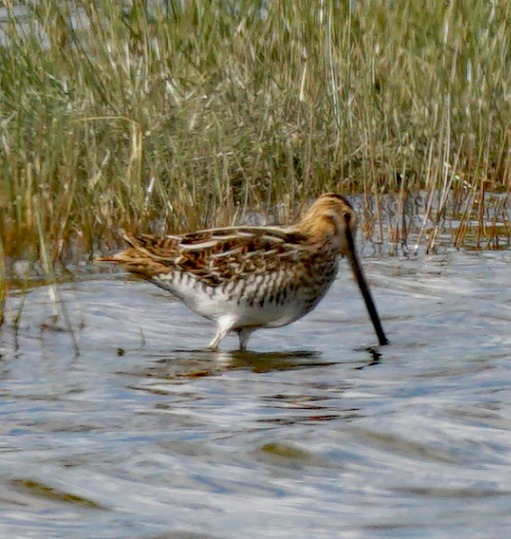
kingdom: Animalia
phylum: Chordata
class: Aves
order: Charadriiformes
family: Scolopacidae
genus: Gallinago
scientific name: Gallinago gallinago
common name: Dobbeltbekkasin
